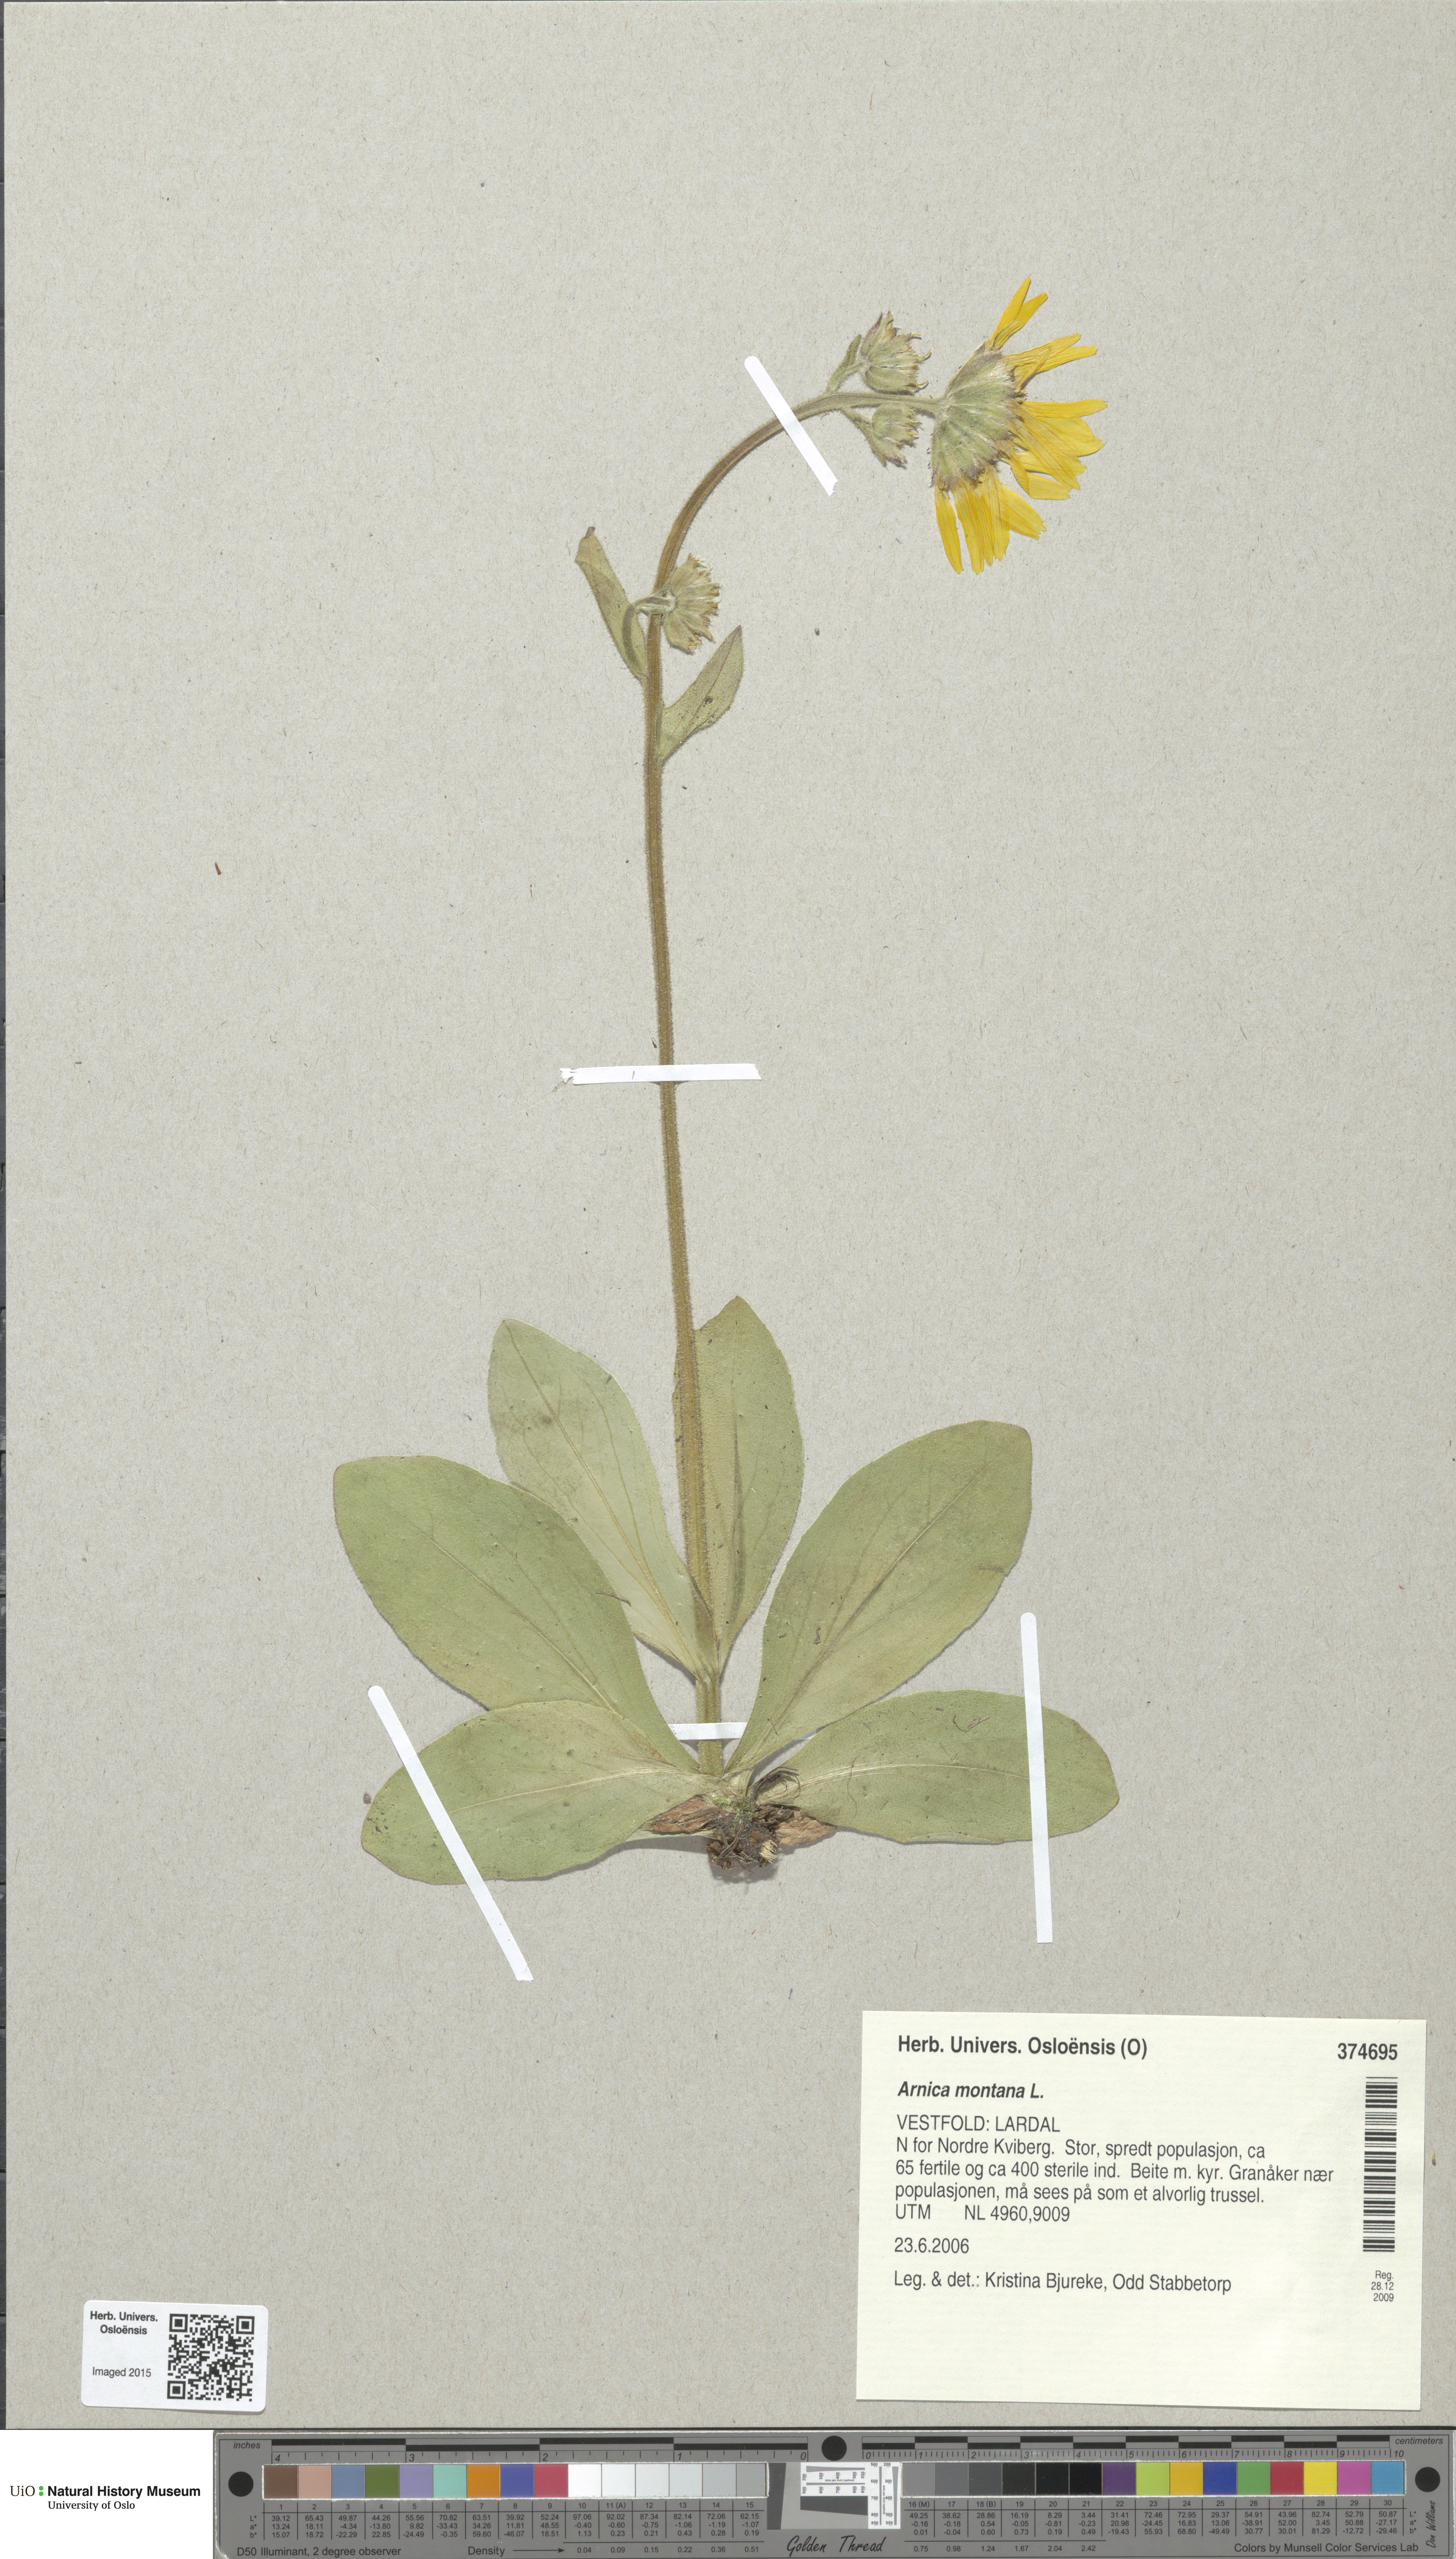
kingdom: Plantae
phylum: Tracheophyta
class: Magnoliopsida
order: Asterales
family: Asteraceae
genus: Arnica
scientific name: Arnica montana
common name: Leopard's bane
